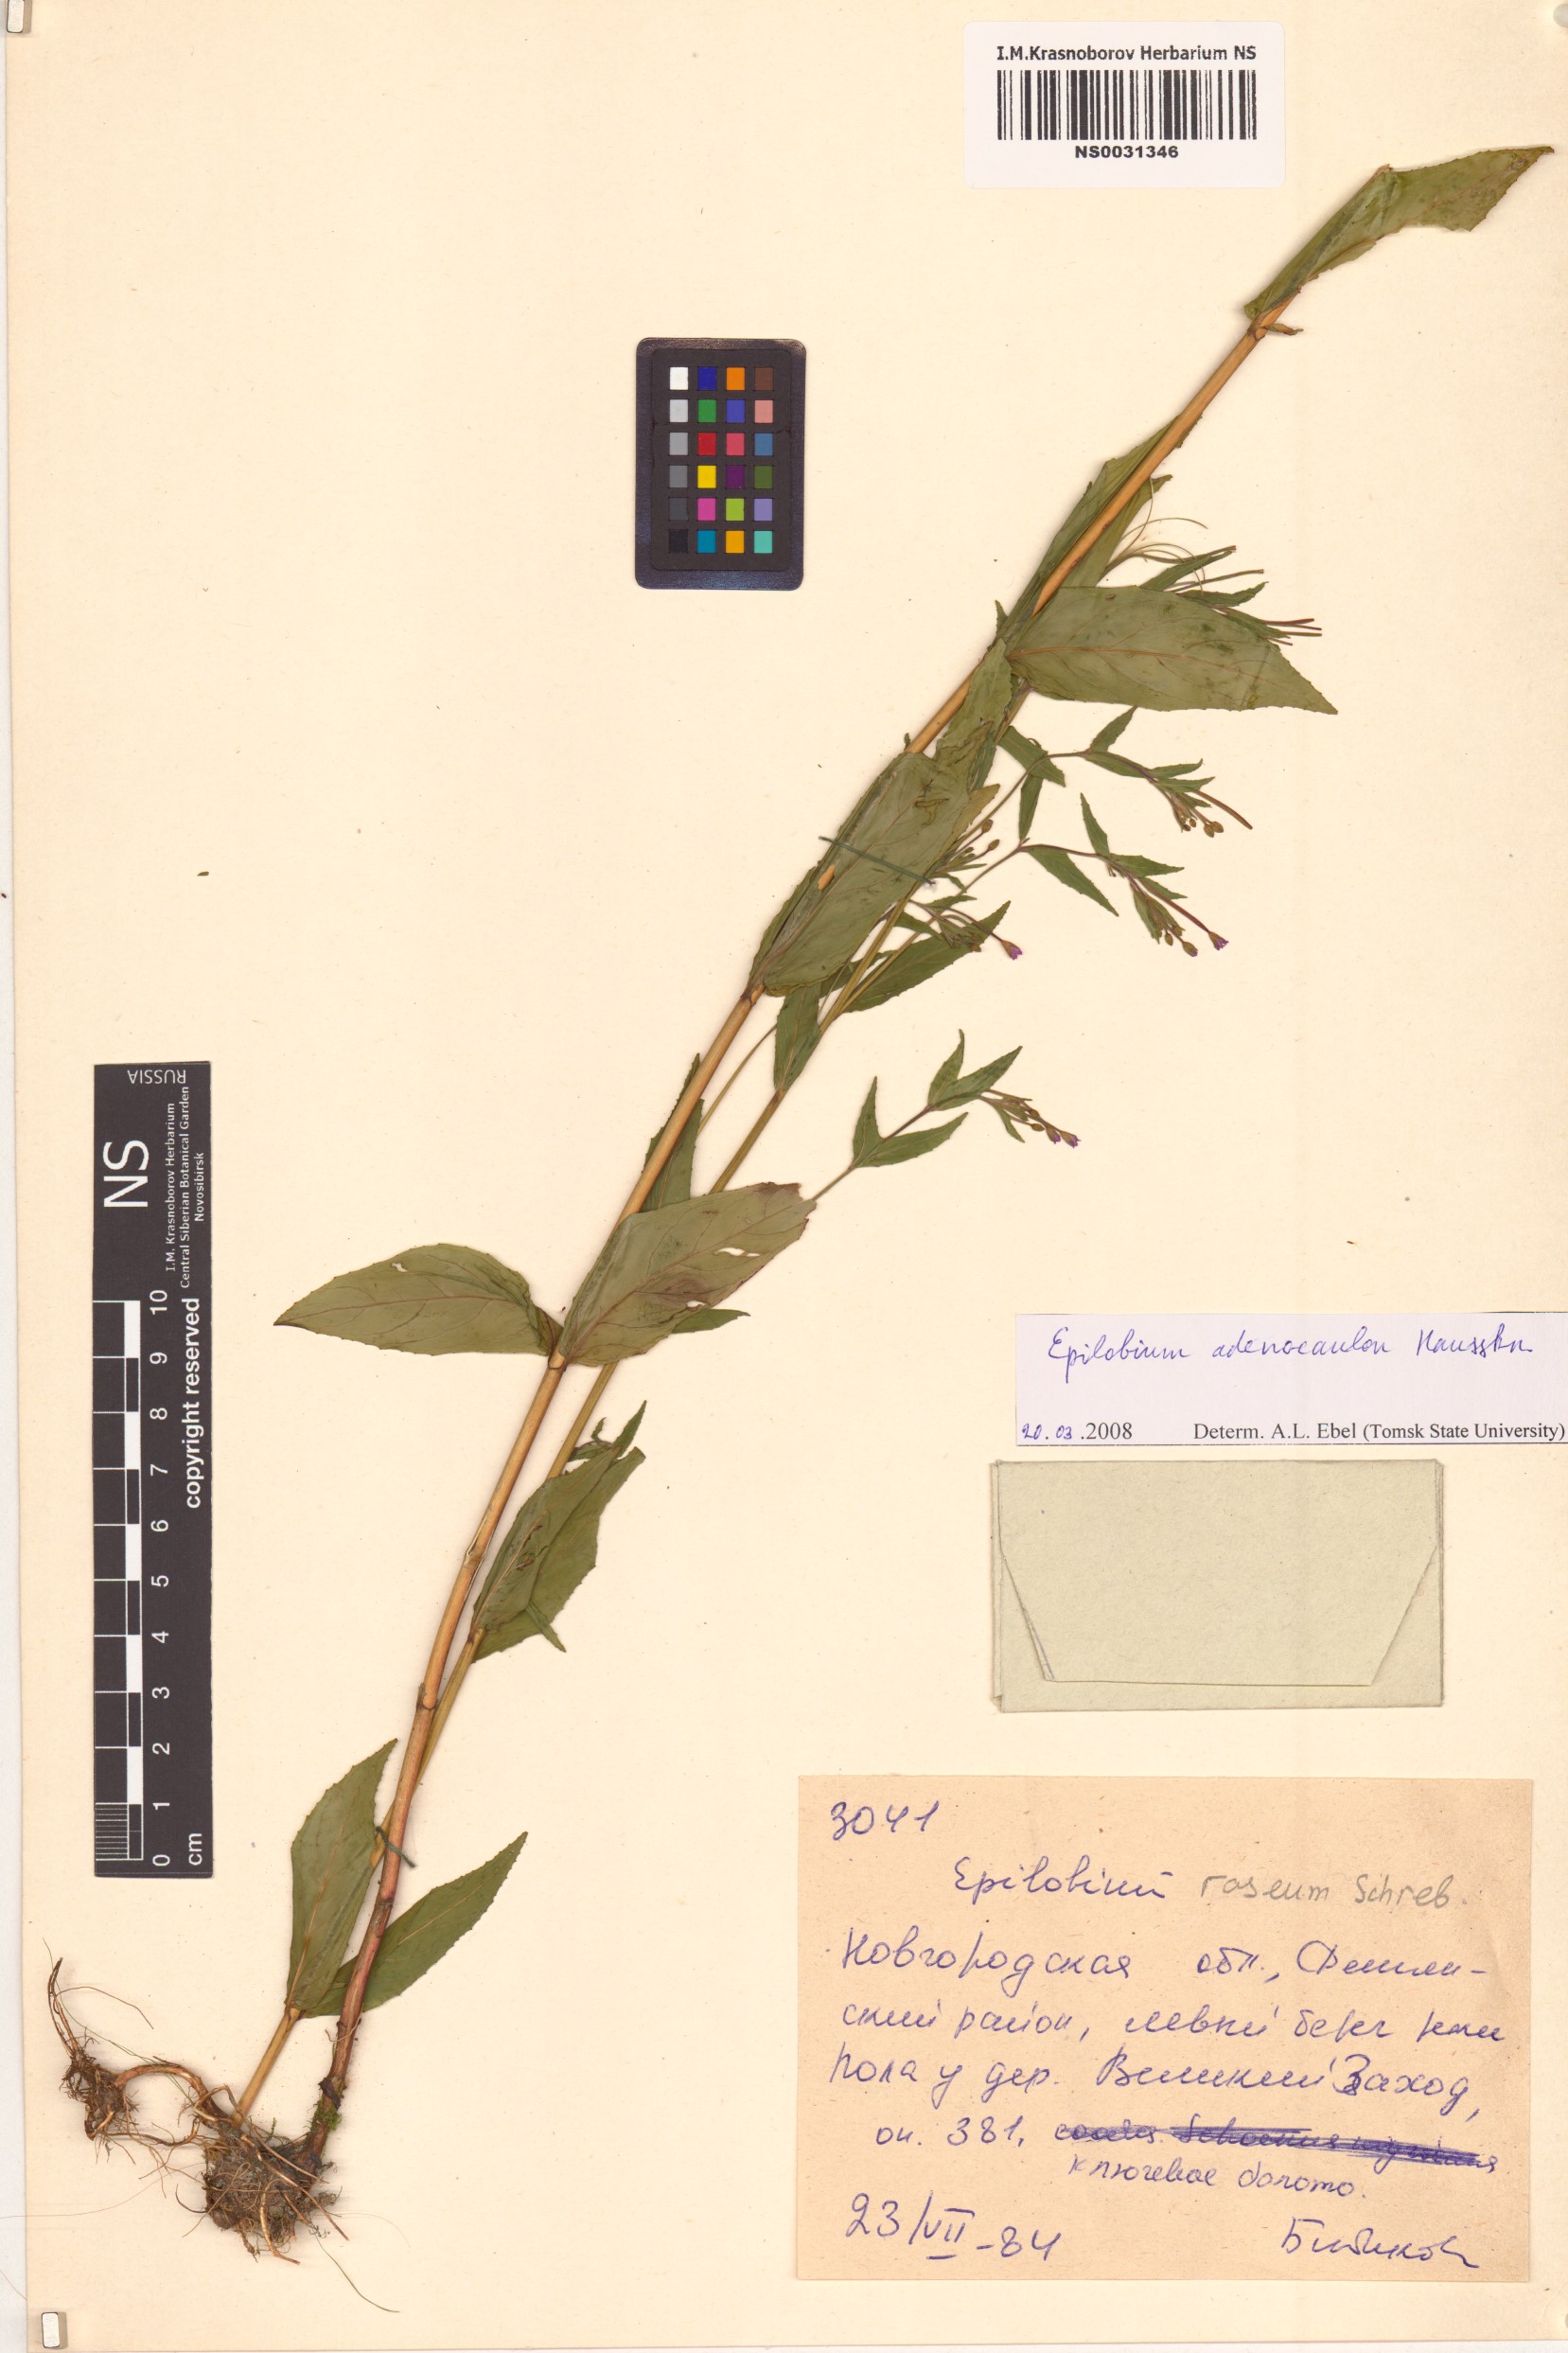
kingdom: Plantae
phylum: Tracheophyta
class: Magnoliopsida
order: Myrtales
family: Onagraceae
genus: Epilobium
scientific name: Epilobium ciliatum
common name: American willowherb
